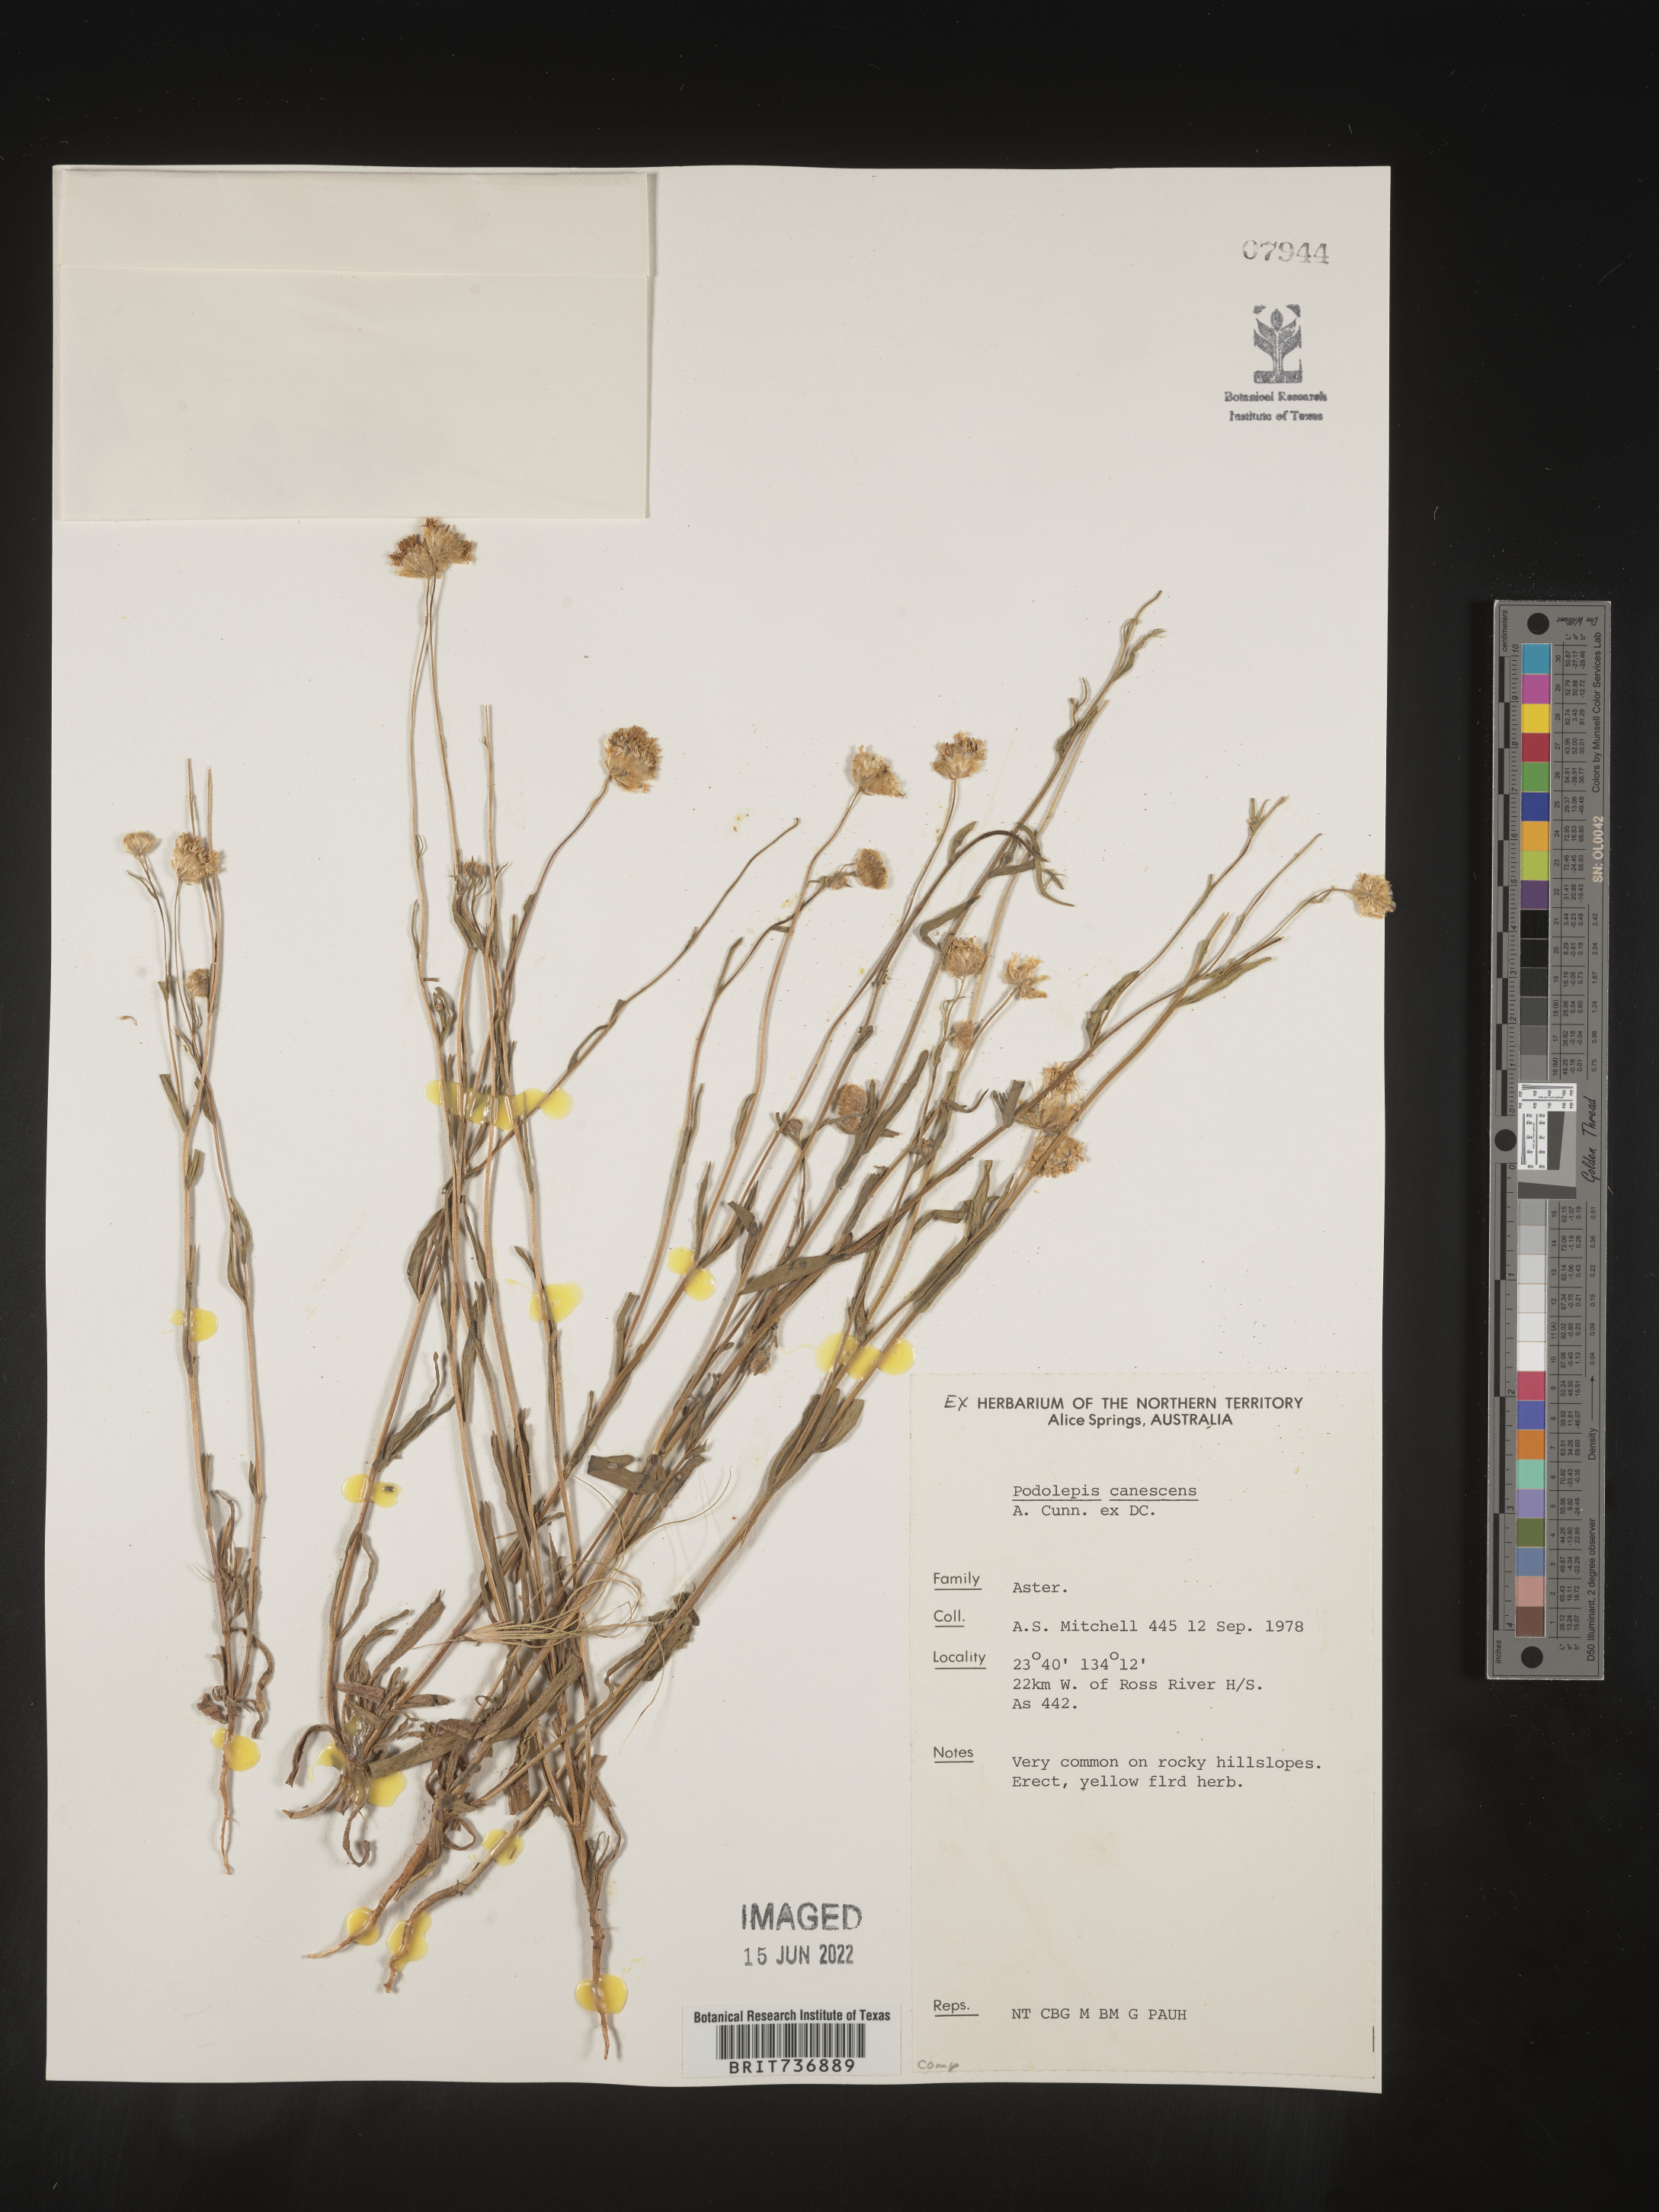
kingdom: Plantae
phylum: Tracheophyta
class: Magnoliopsida
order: Asterales
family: Asteraceae
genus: Podolepis
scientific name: Podolepis
